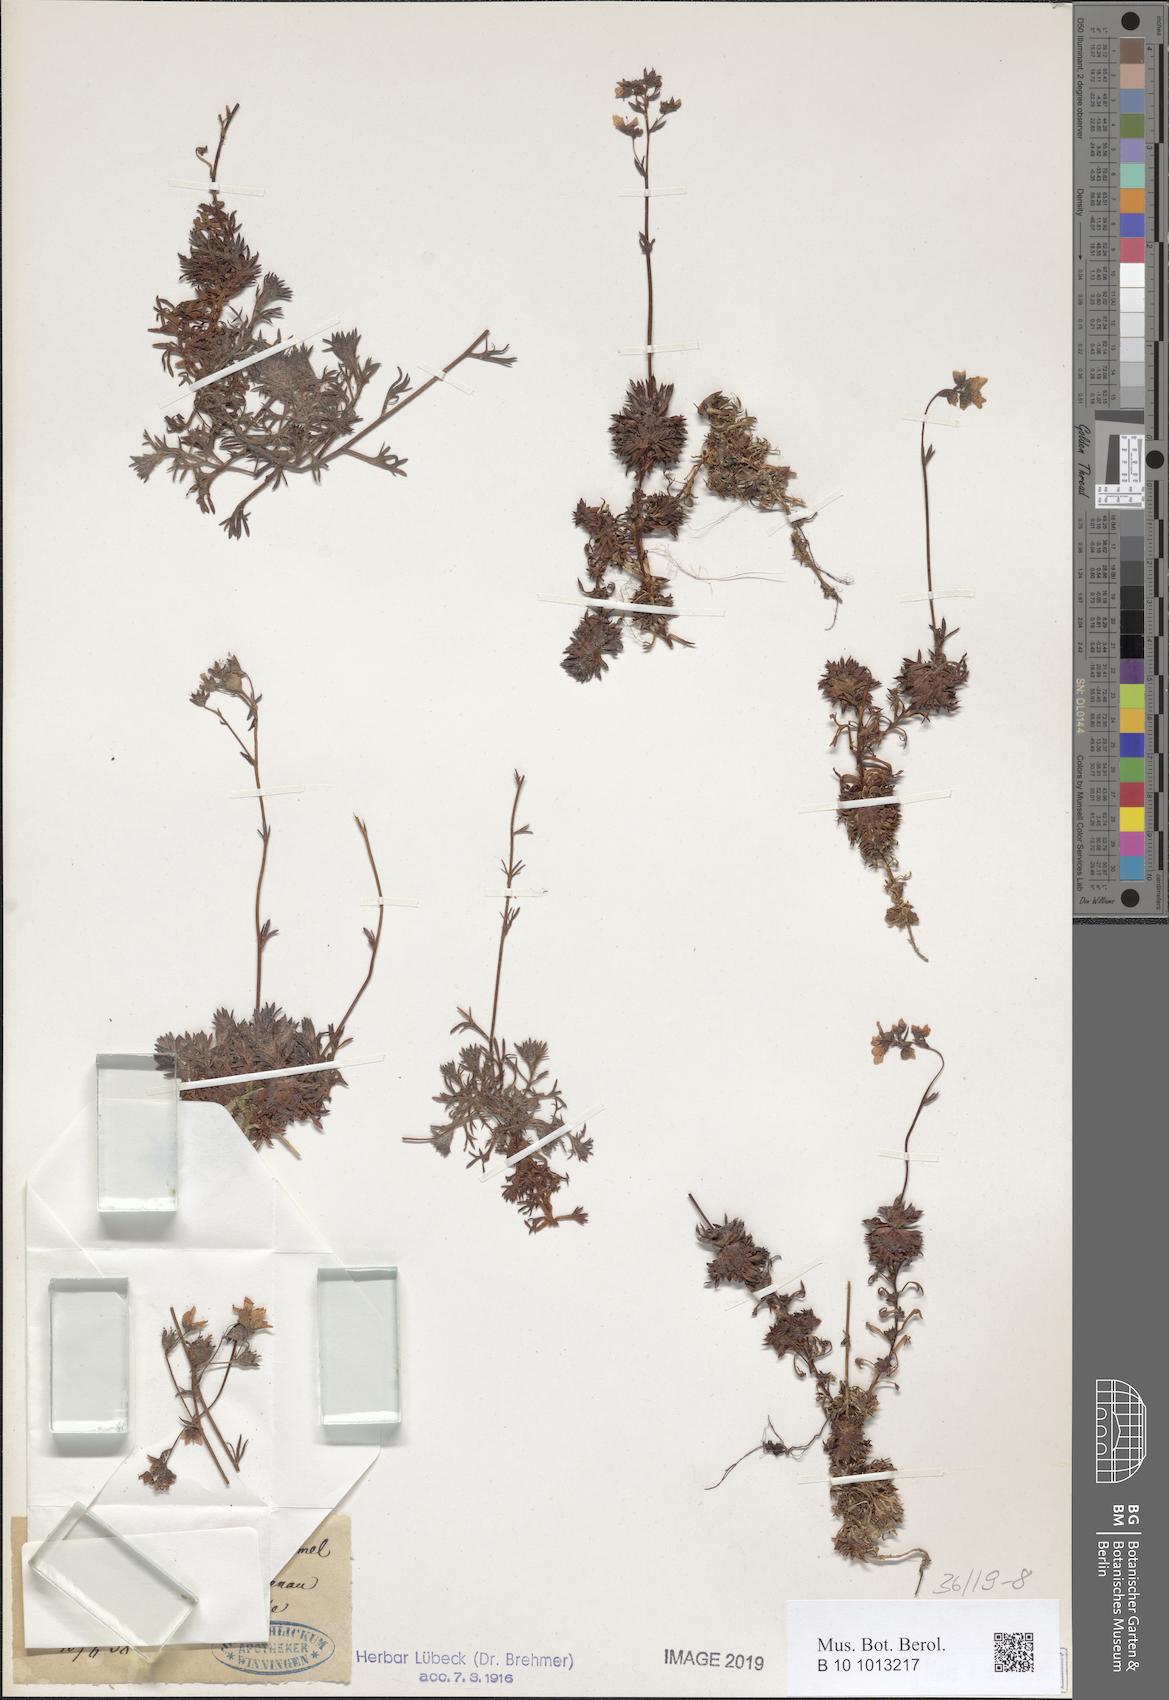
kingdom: Plantae
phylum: Tracheophyta
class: Magnoliopsida
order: Saxifragales
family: Saxifragaceae
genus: Saxifraga
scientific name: Saxifraga rosacea
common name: Irish saxifrage
